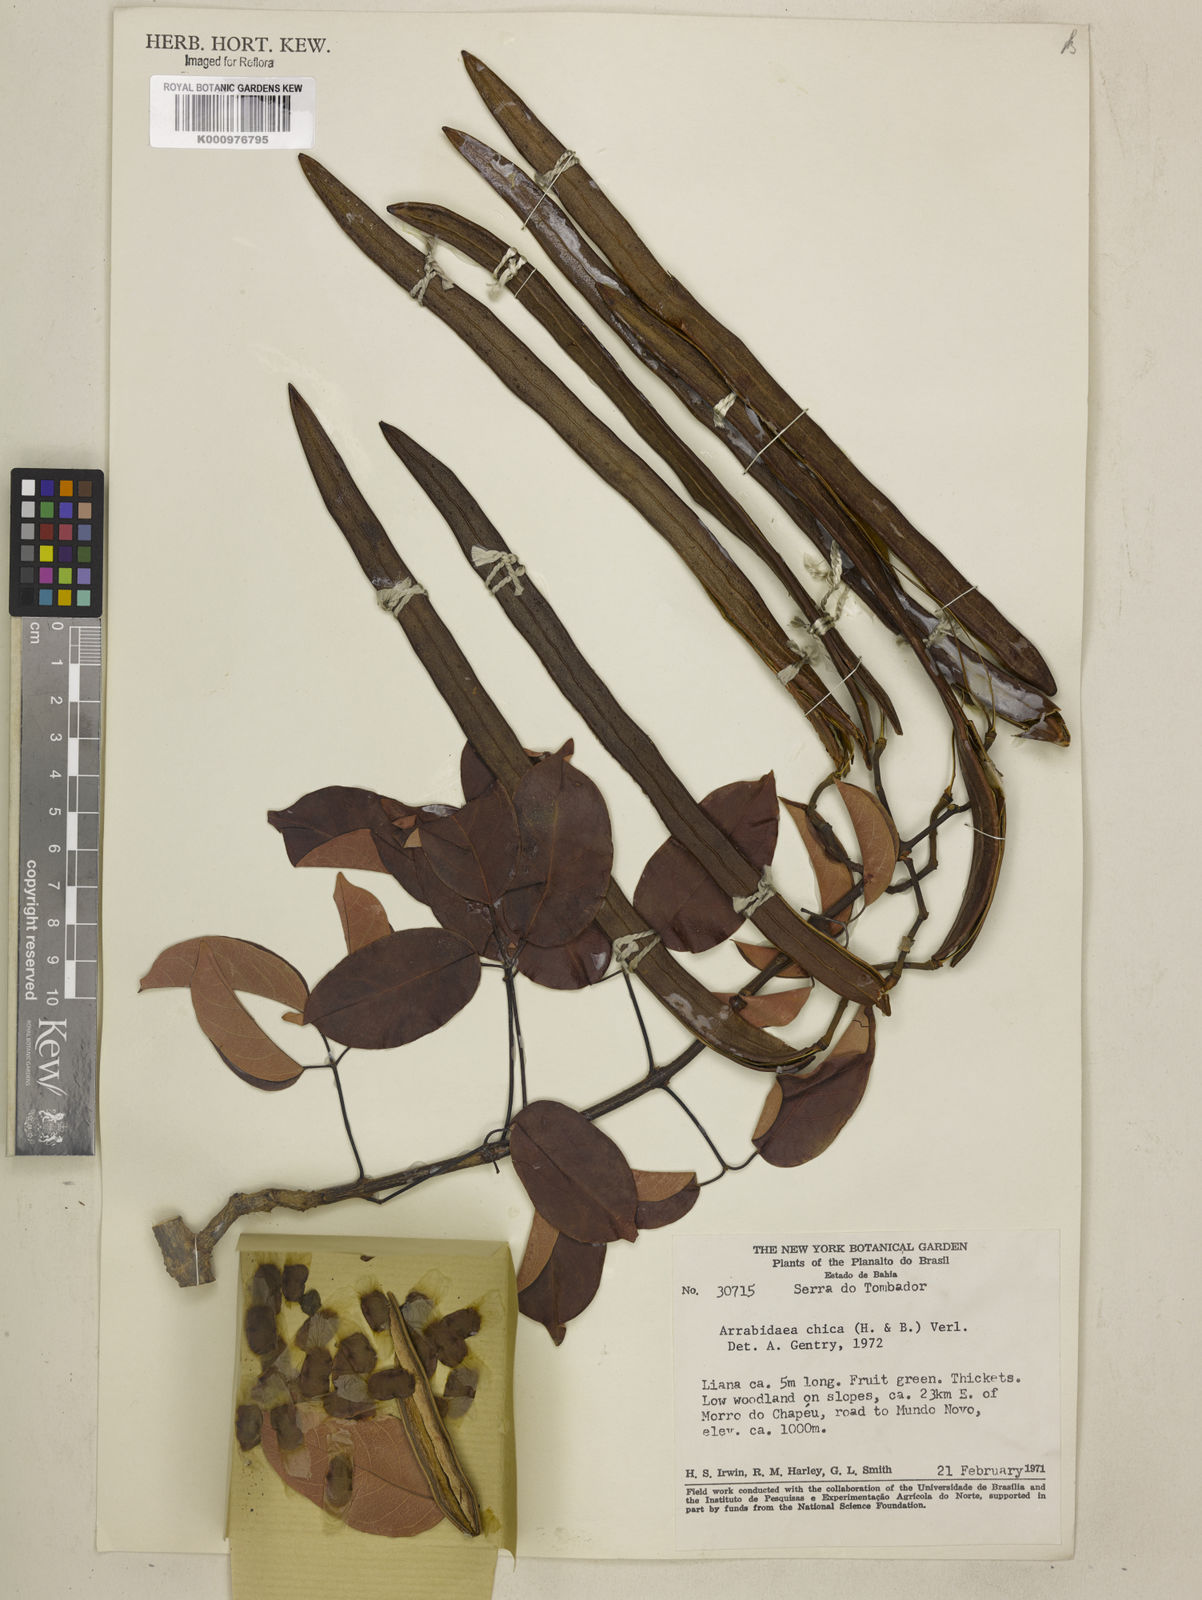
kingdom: Plantae
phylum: Tracheophyta
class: Magnoliopsida
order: Lamiales
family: Bignoniaceae
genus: Fridericia
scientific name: Fridericia chica
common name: Cricketvine
